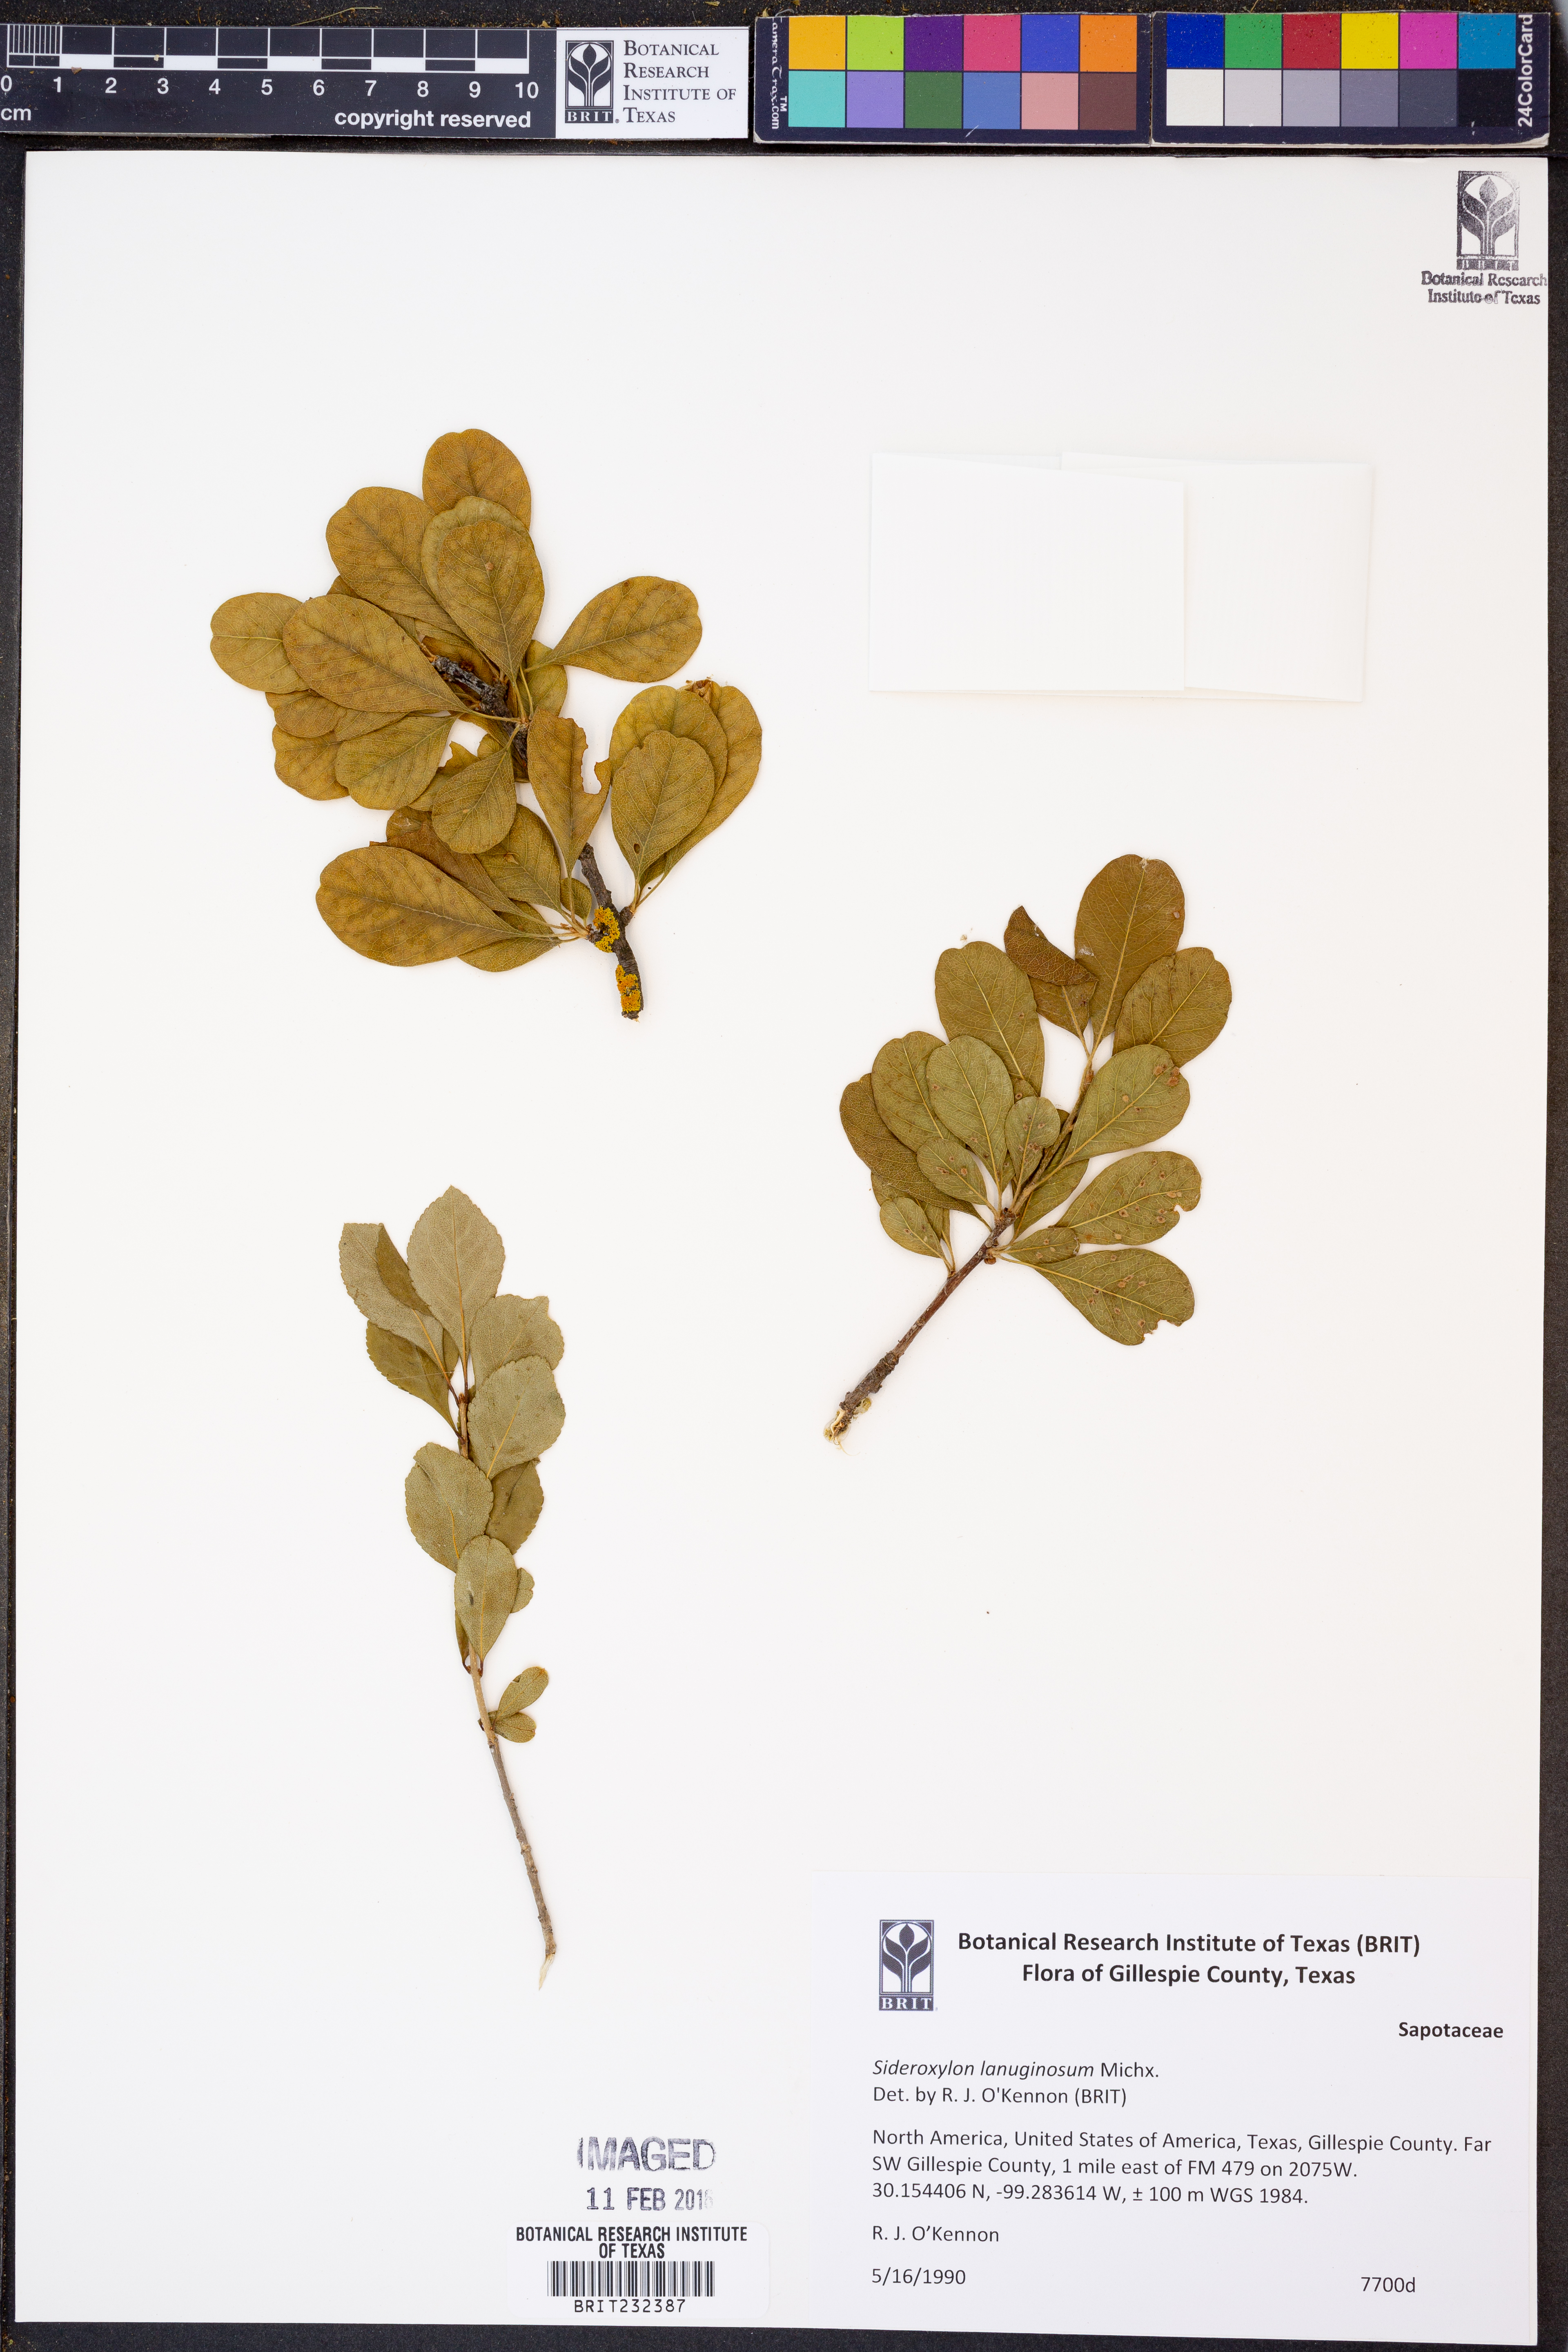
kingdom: Plantae
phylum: Tracheophyta
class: Magnoliopsida
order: Ericales
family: Sapotaceae
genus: Sideroxylon
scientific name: Sideroxylon lanuginosum
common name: Chittamwood
